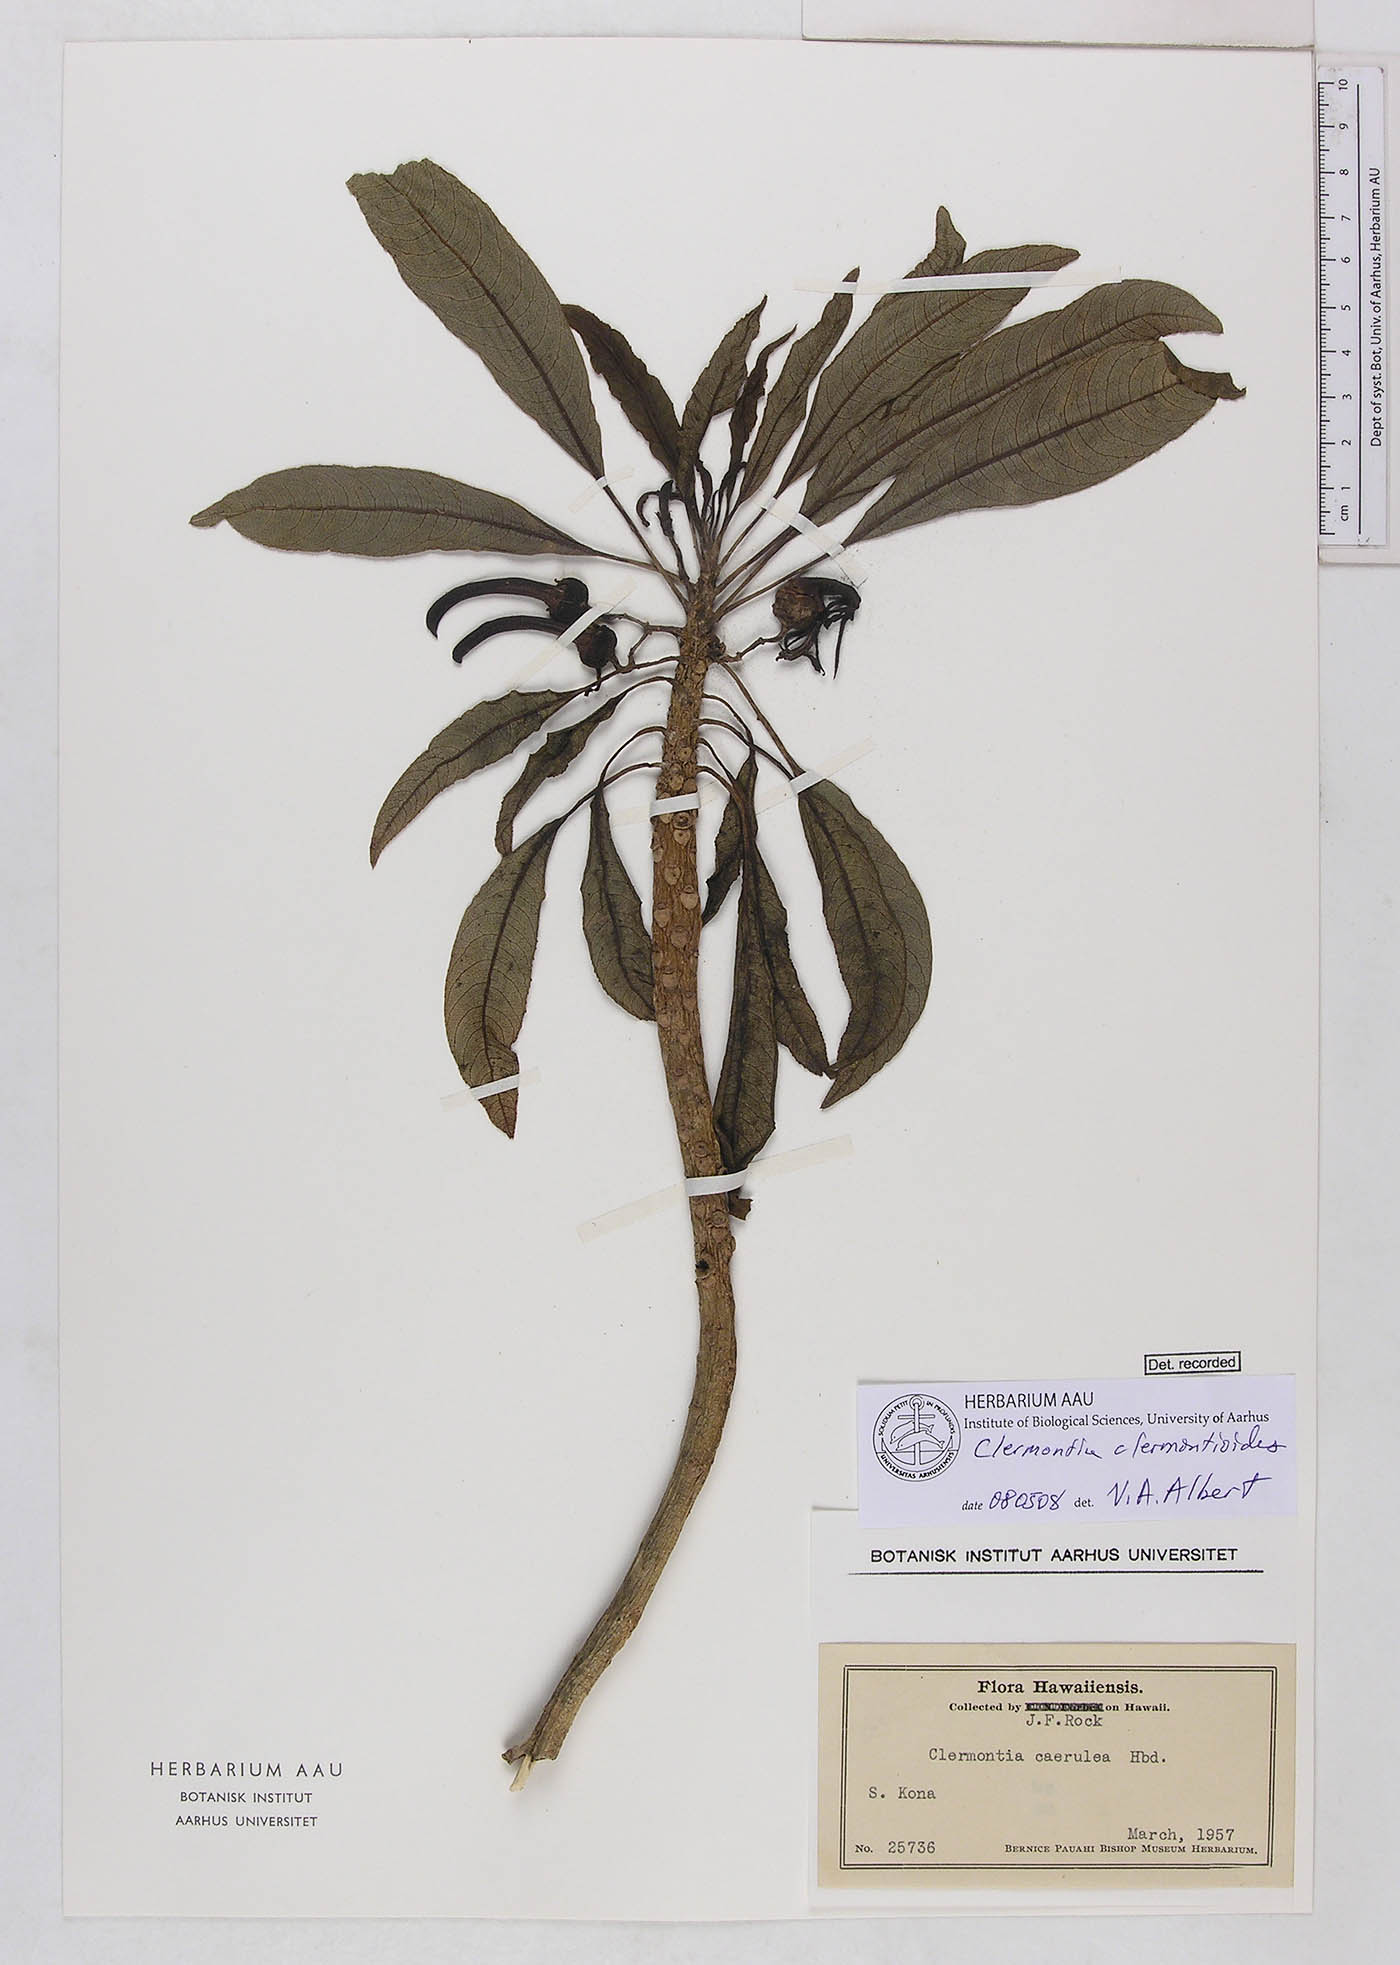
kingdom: Plantae
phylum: Tracheophyta
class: Magnoliopsida
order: Asterales
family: Campanulaceae
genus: Clermontia
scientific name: Clermontia clermontioides
